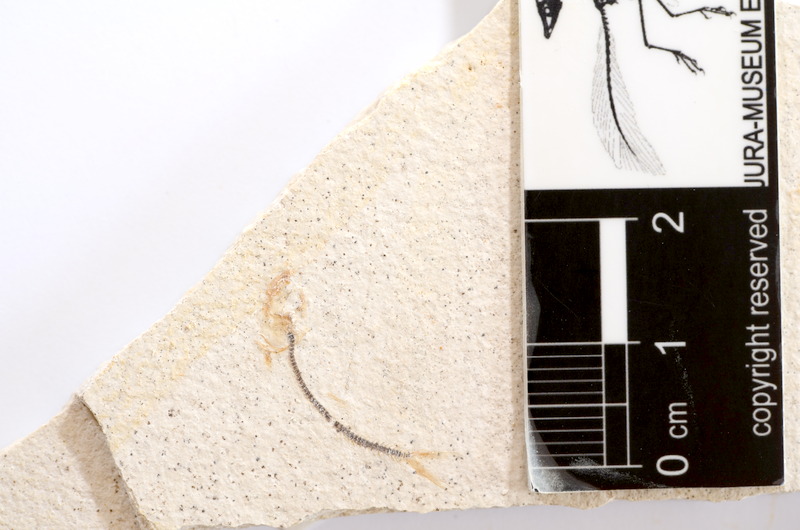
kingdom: Animalia
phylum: Chordata
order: Salmoniformes
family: Orthogonikleithridae
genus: Orthogonikleithrus
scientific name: Orthogonikleithrus hoelli
